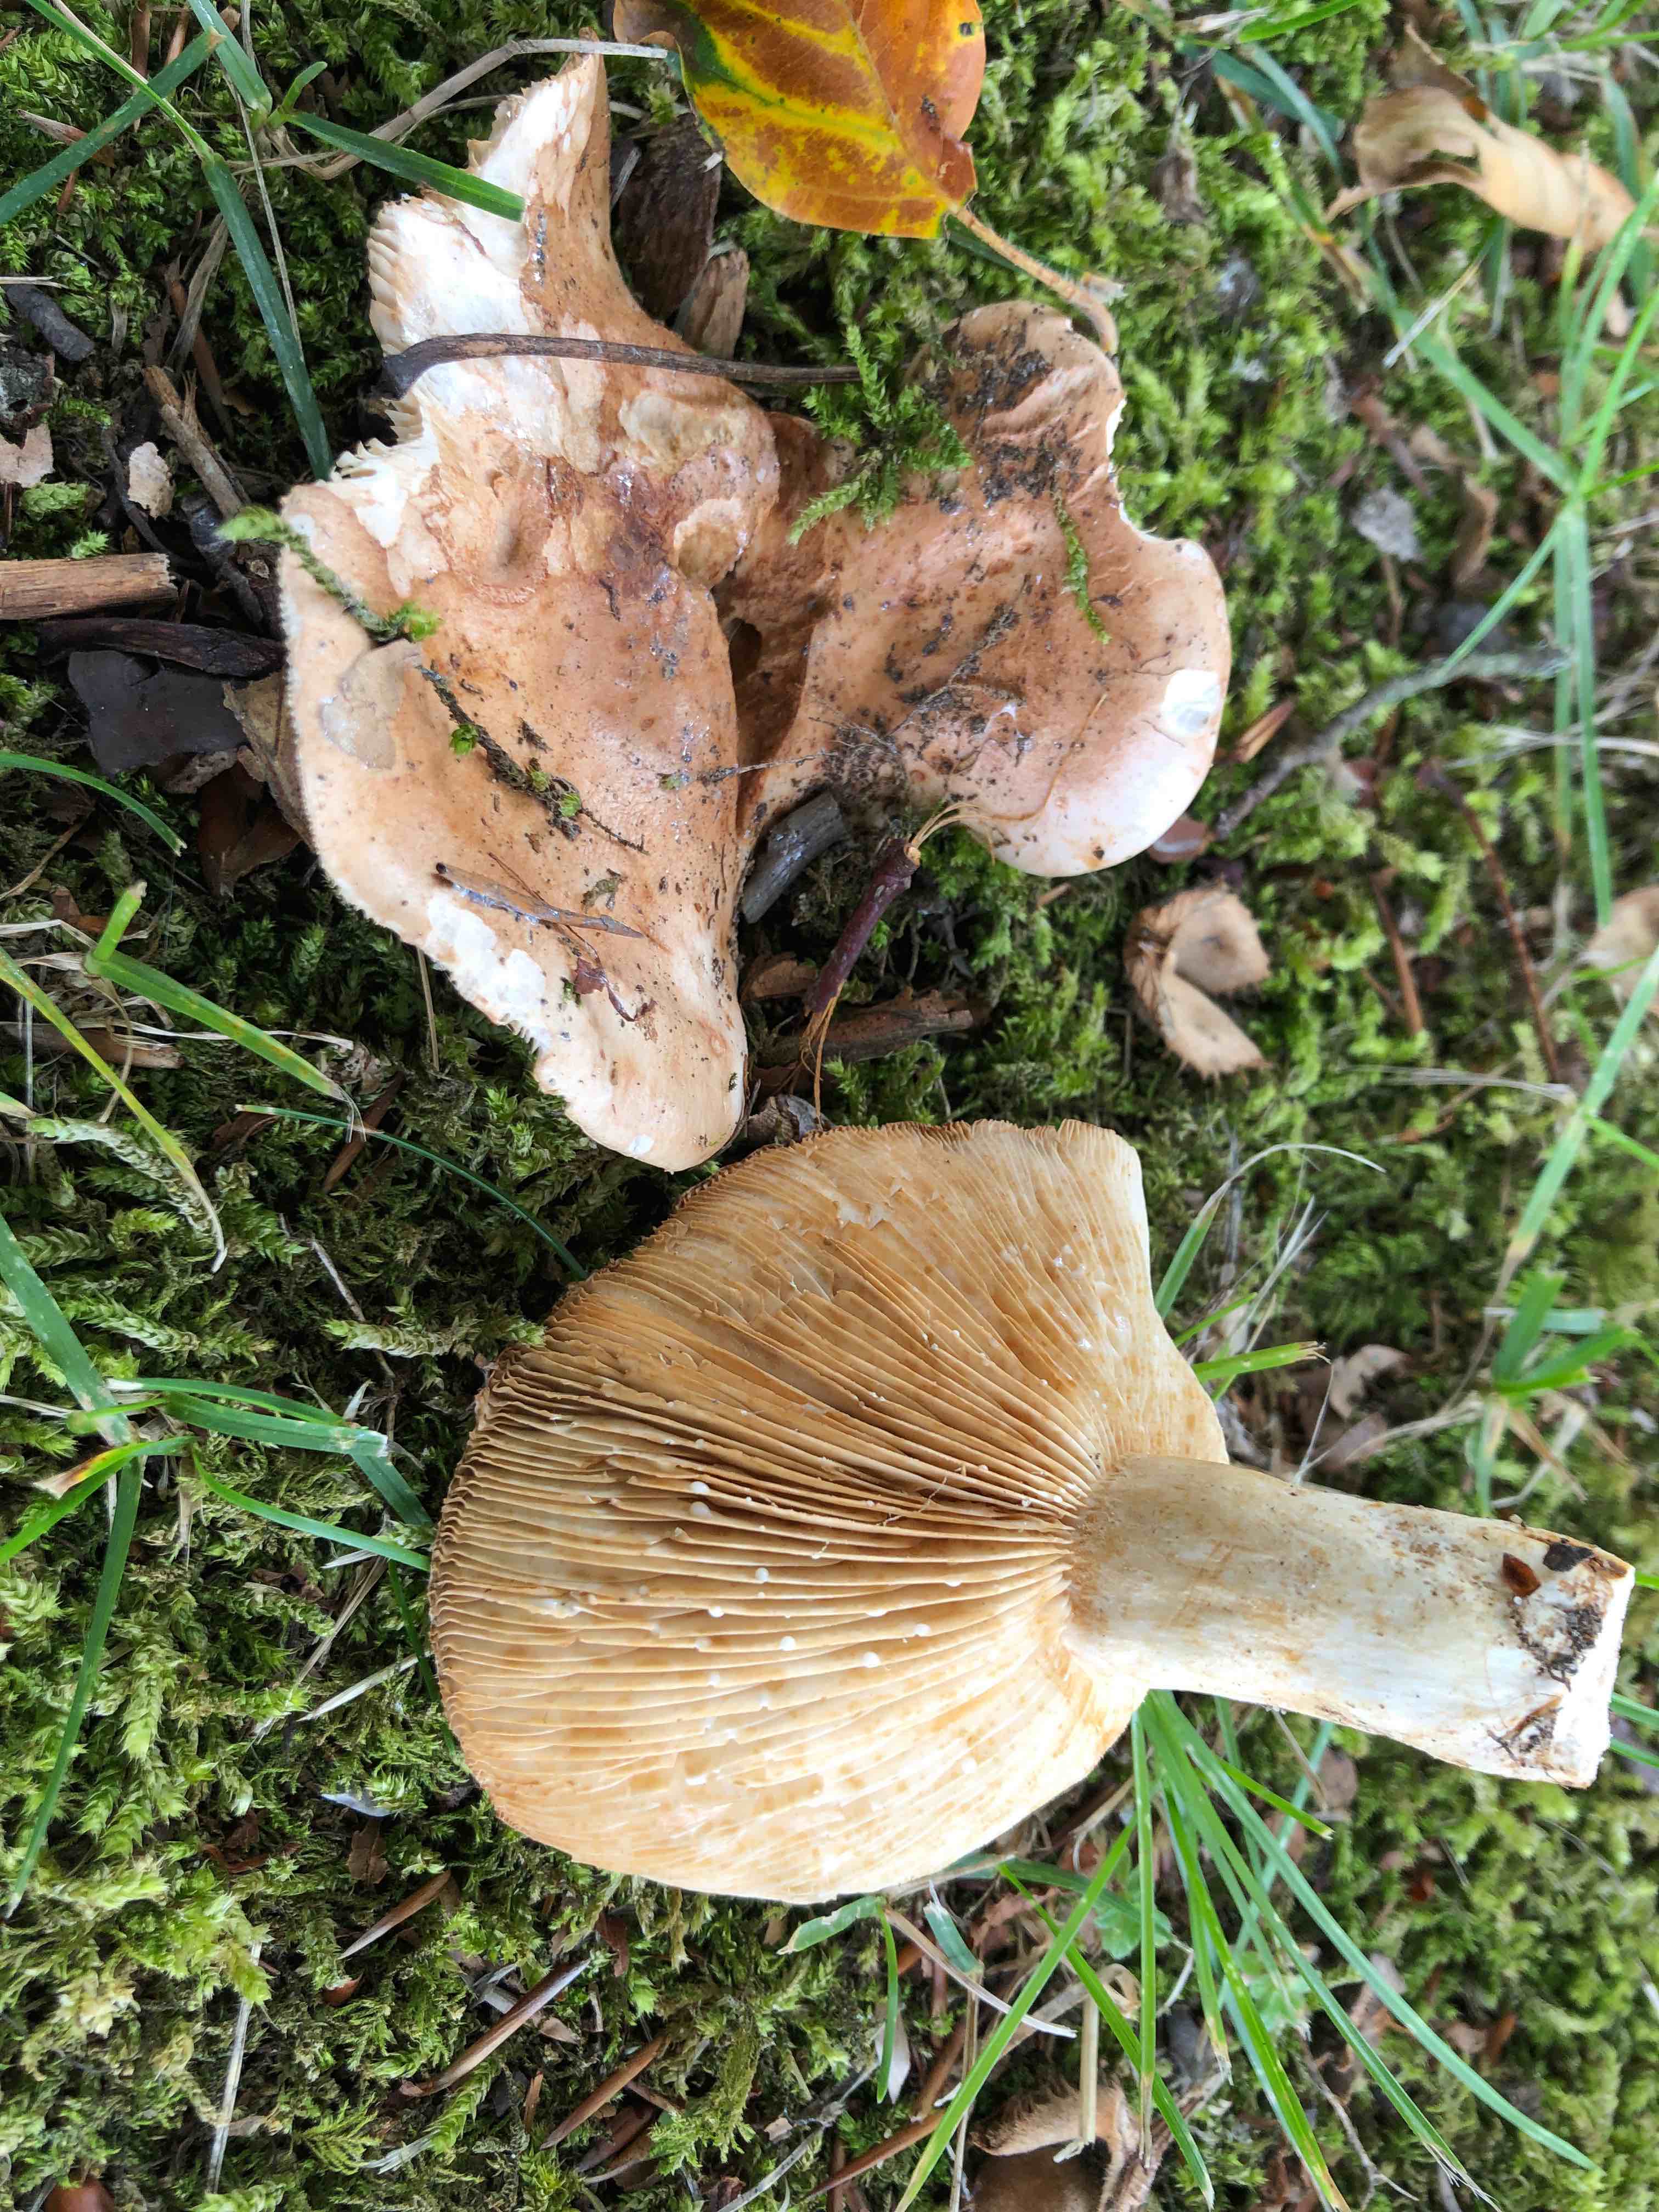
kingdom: Fungi
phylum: Basidiomycota
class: Agaricomycetes
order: Russulales
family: Russulaceae
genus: Lactarius
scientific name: Lactarius pallidus
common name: bleg mælkehat
